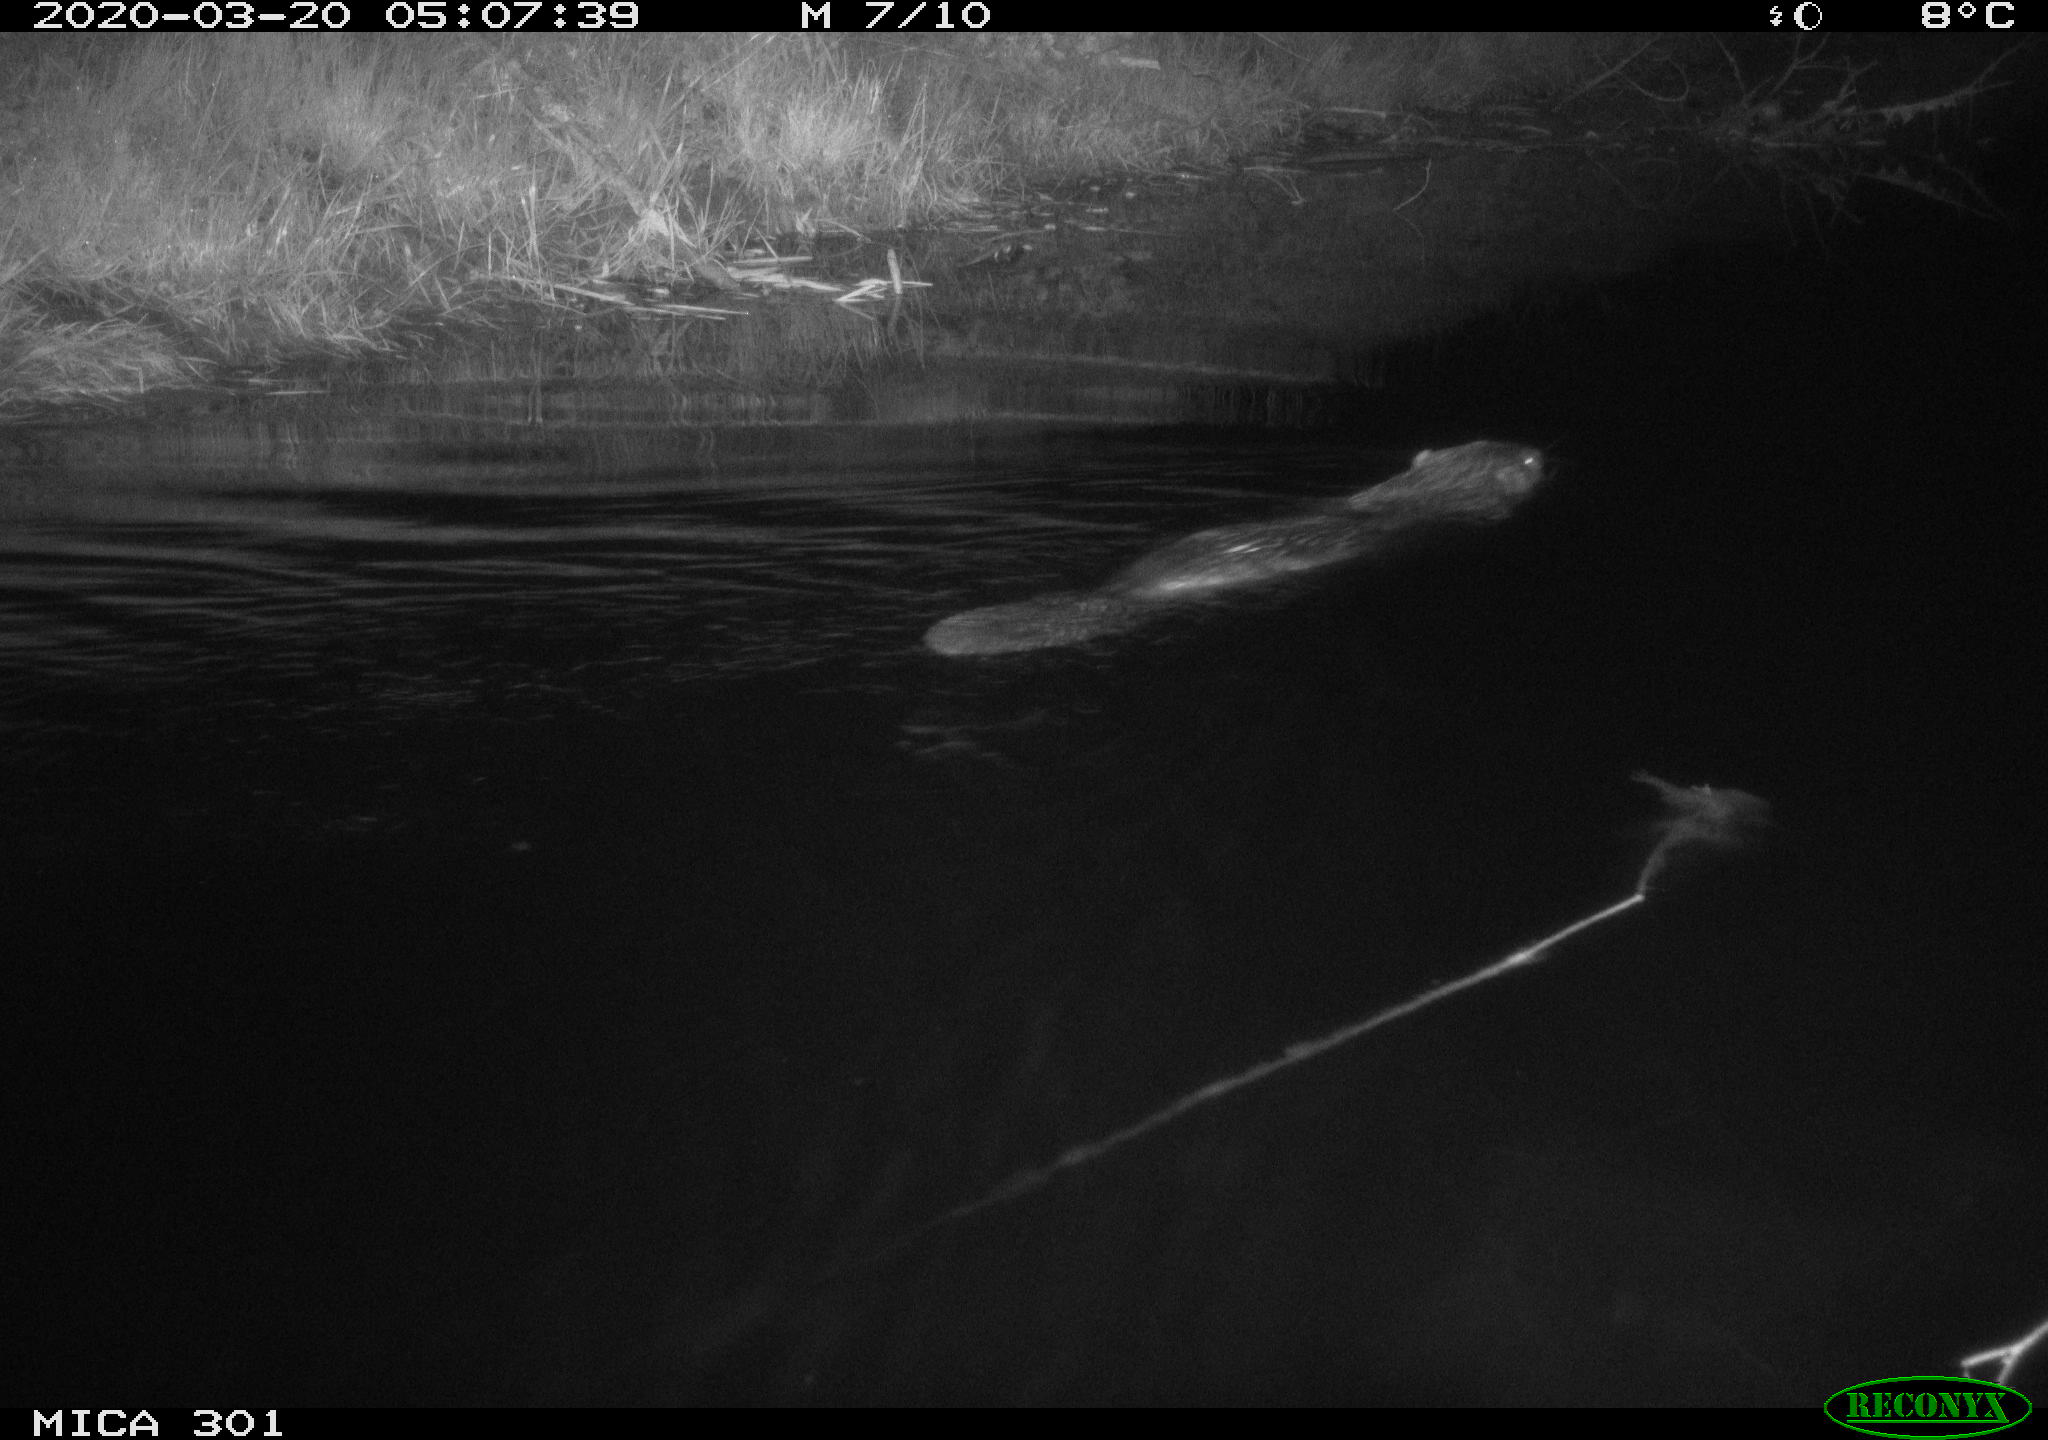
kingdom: Animalia
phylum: Chordata
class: Mammalia
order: Rodentia
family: Castoridae
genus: Castor
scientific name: Castor fiber
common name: Eurasian beaver
